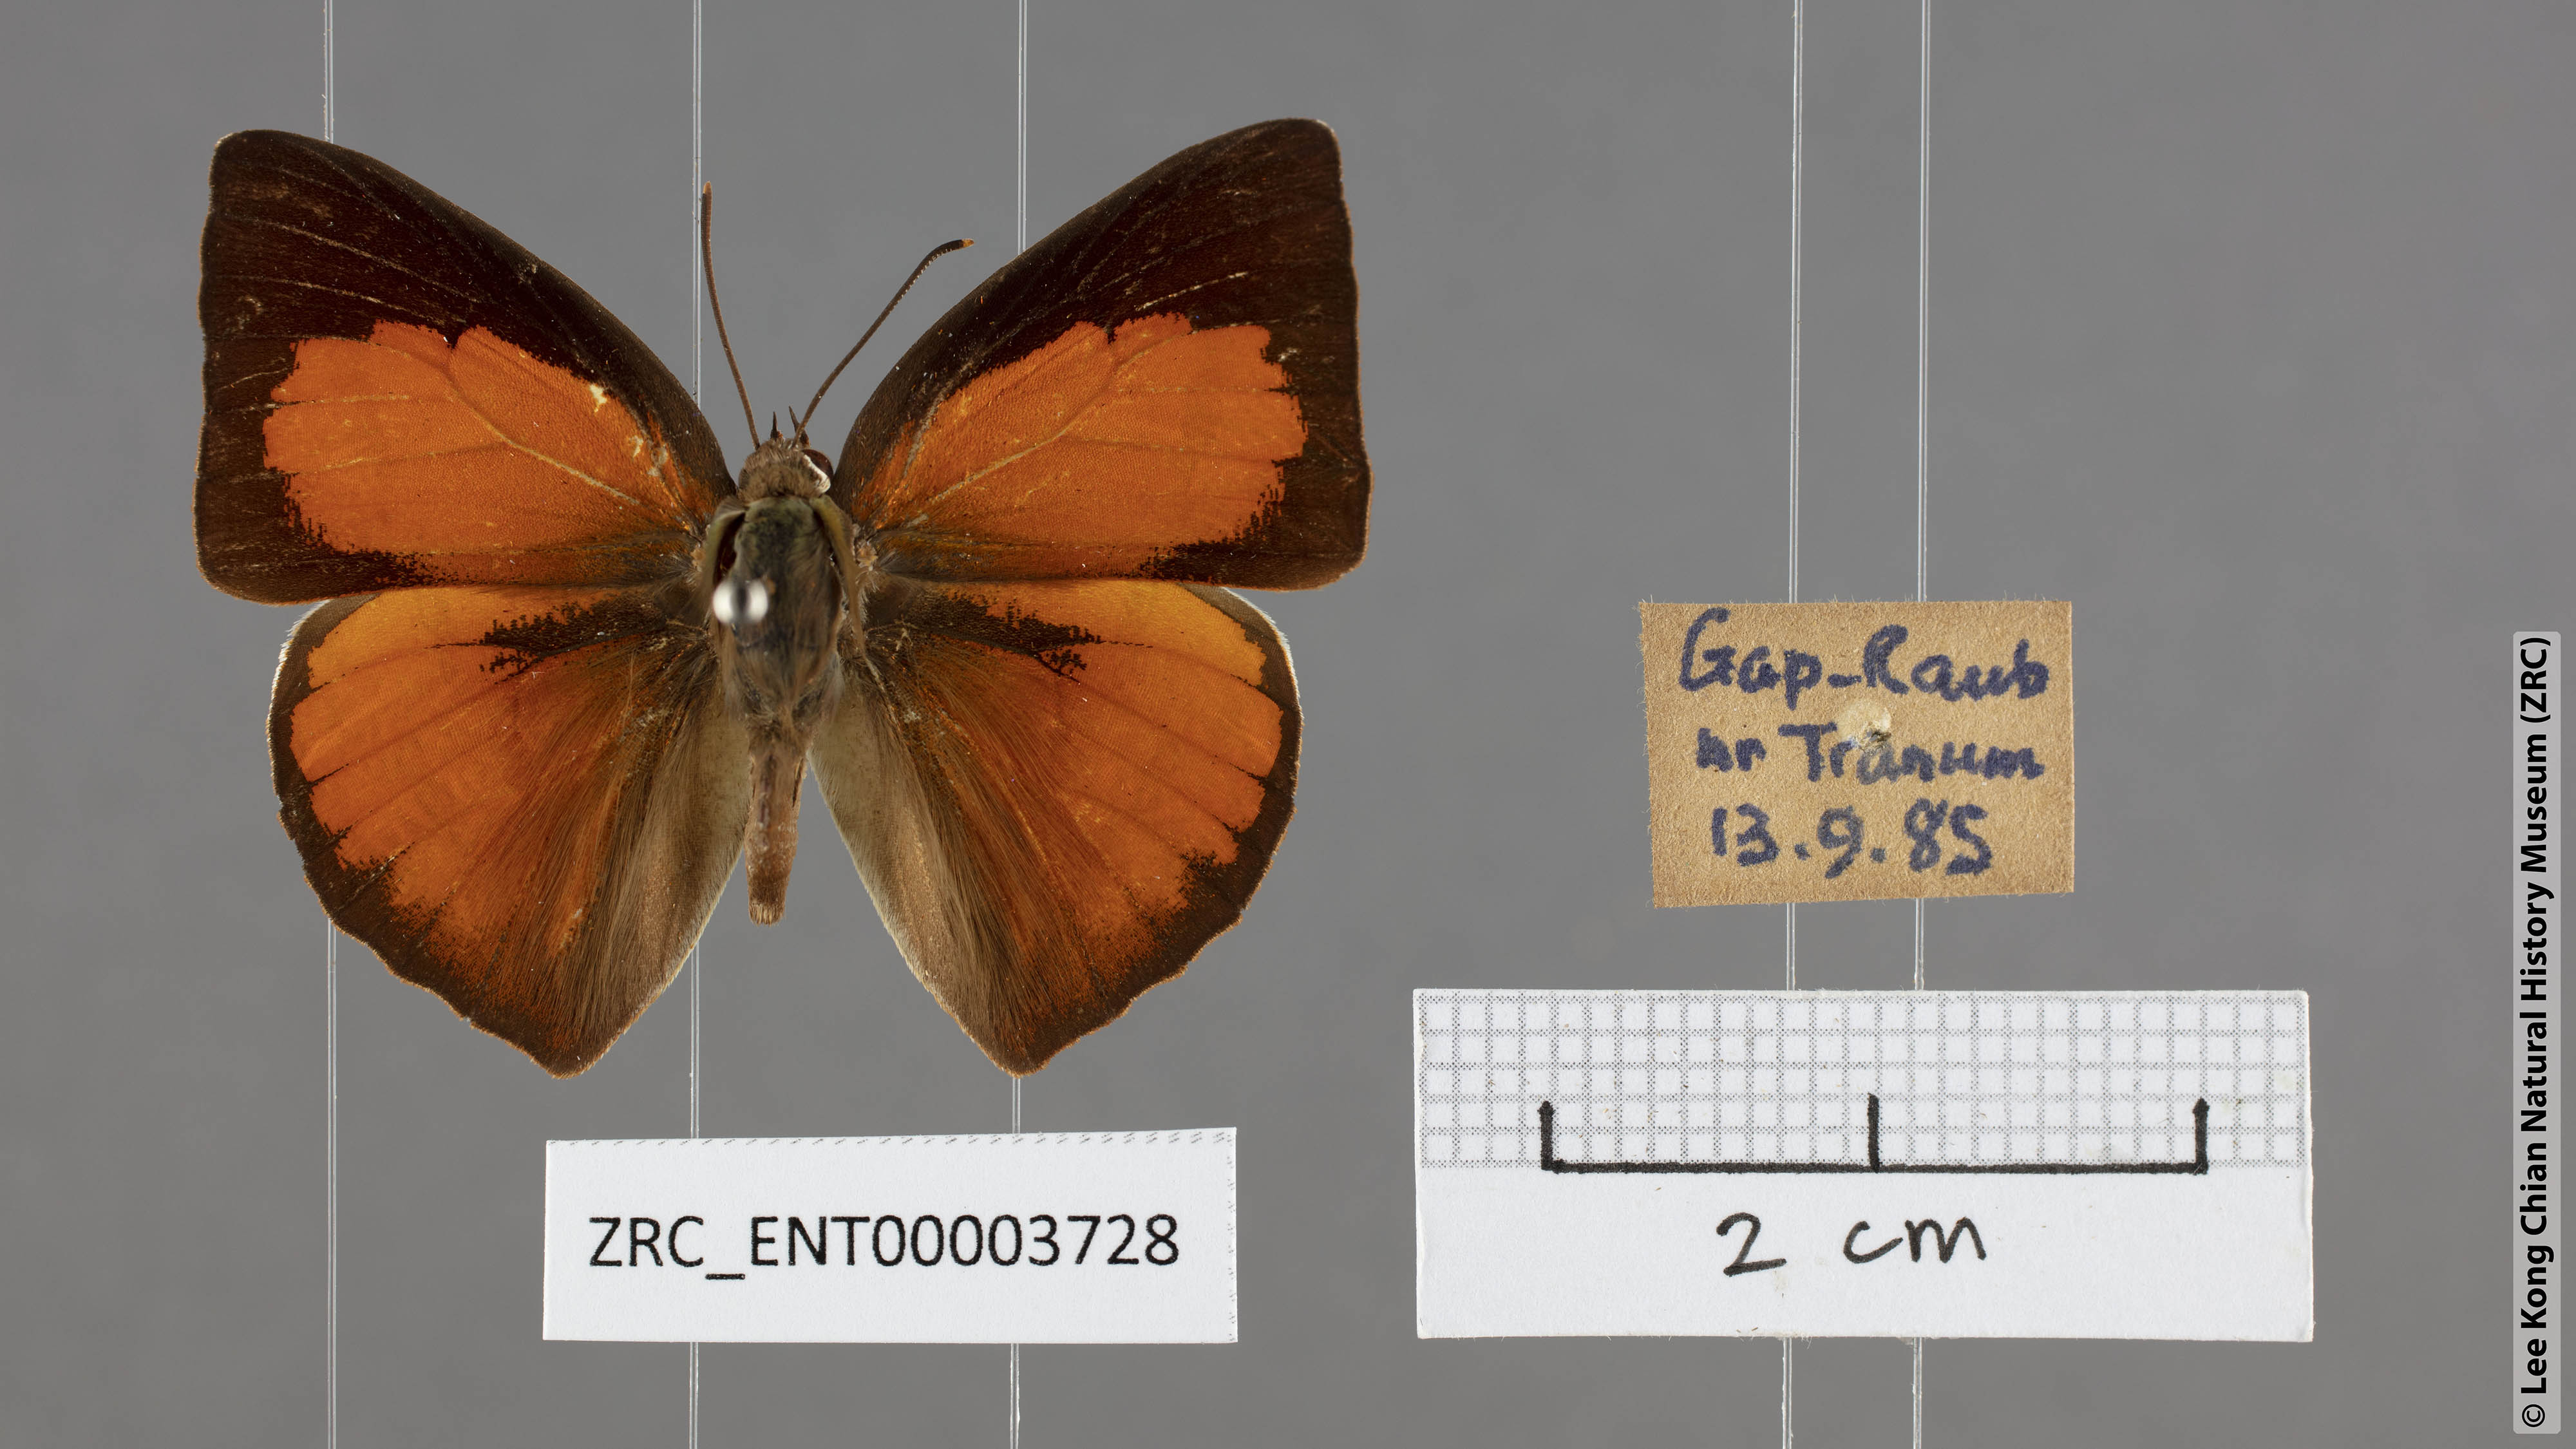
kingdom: Animalia
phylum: Arthropoda
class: Insecta
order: Lepidoptera
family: Lycaenidae
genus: Curetis
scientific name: Curetis bulis
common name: Bright sunbeam
